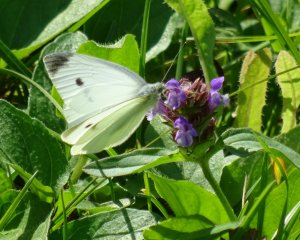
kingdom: Animalia
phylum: Arthropoda
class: Insecta
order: Lepidoptera
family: Pieridae
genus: Pieris
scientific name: Pieris rapae
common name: Cabbage White
